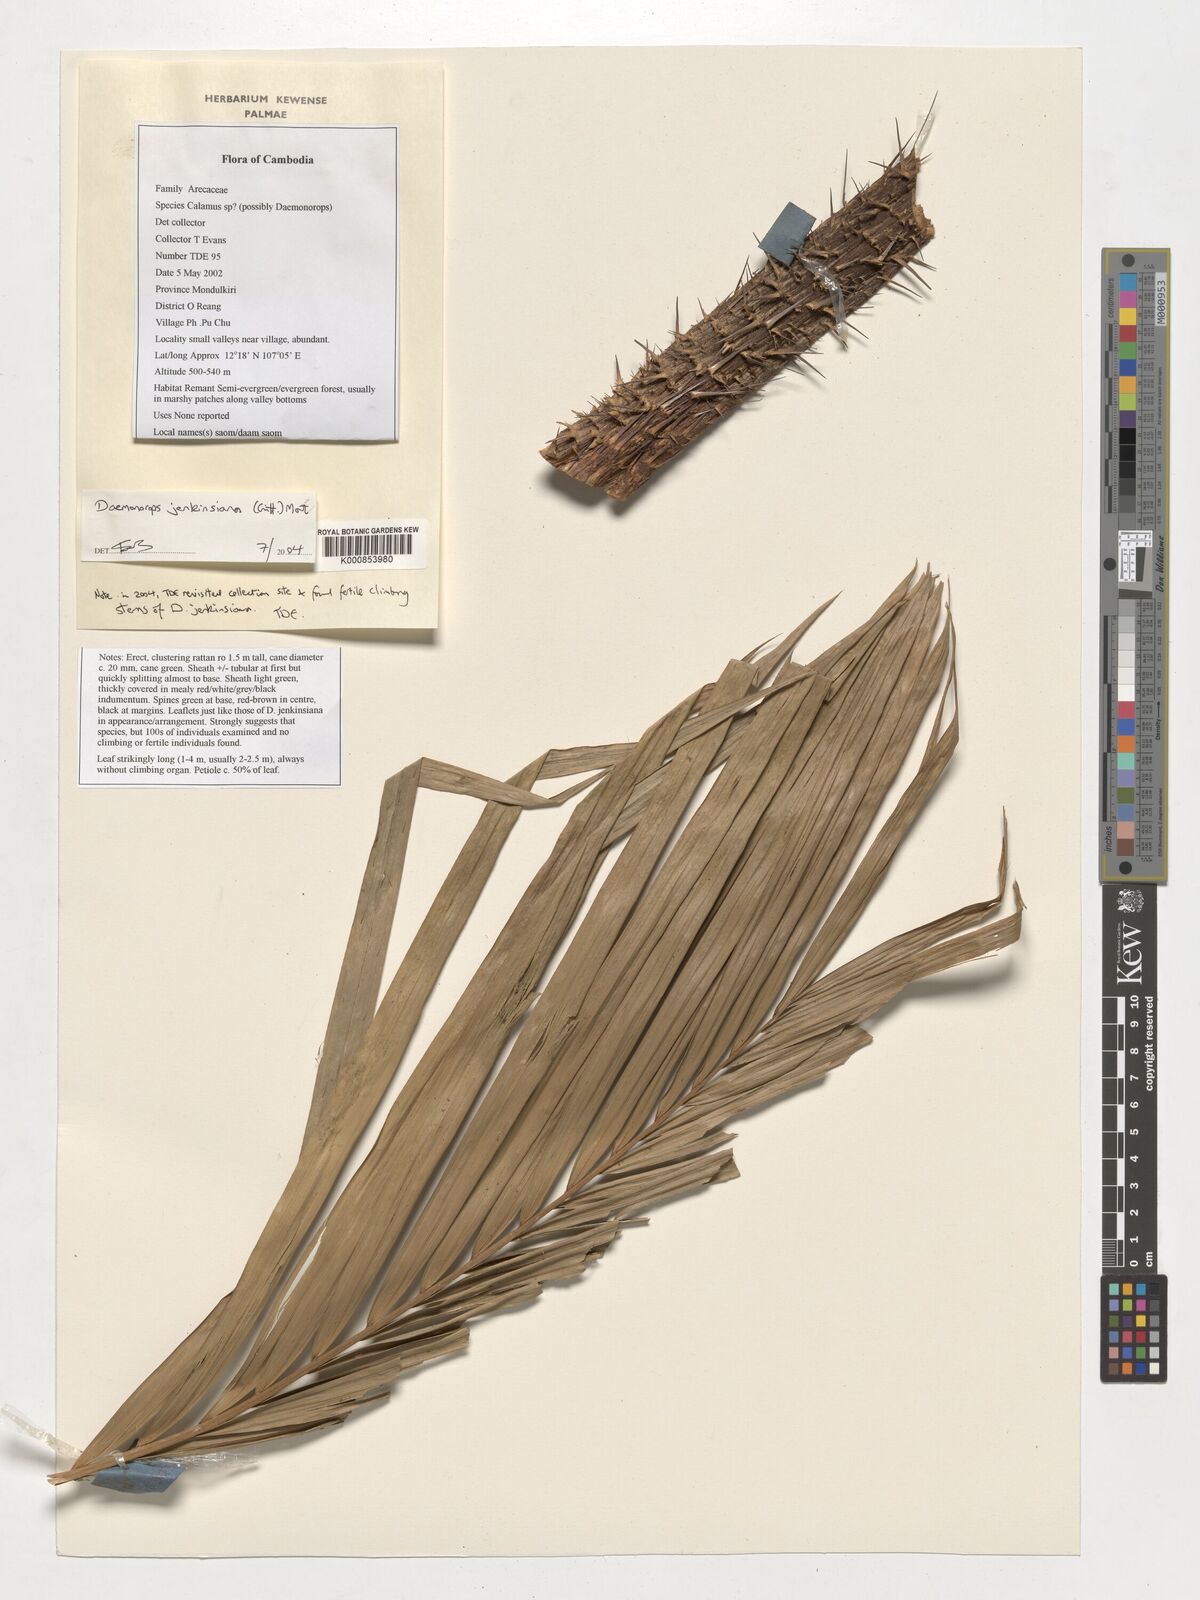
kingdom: Plantae
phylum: Tracheophyta
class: Liliopsida
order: Arecales
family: Arecaceae
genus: Calamus
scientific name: Calamus melanochaetes
